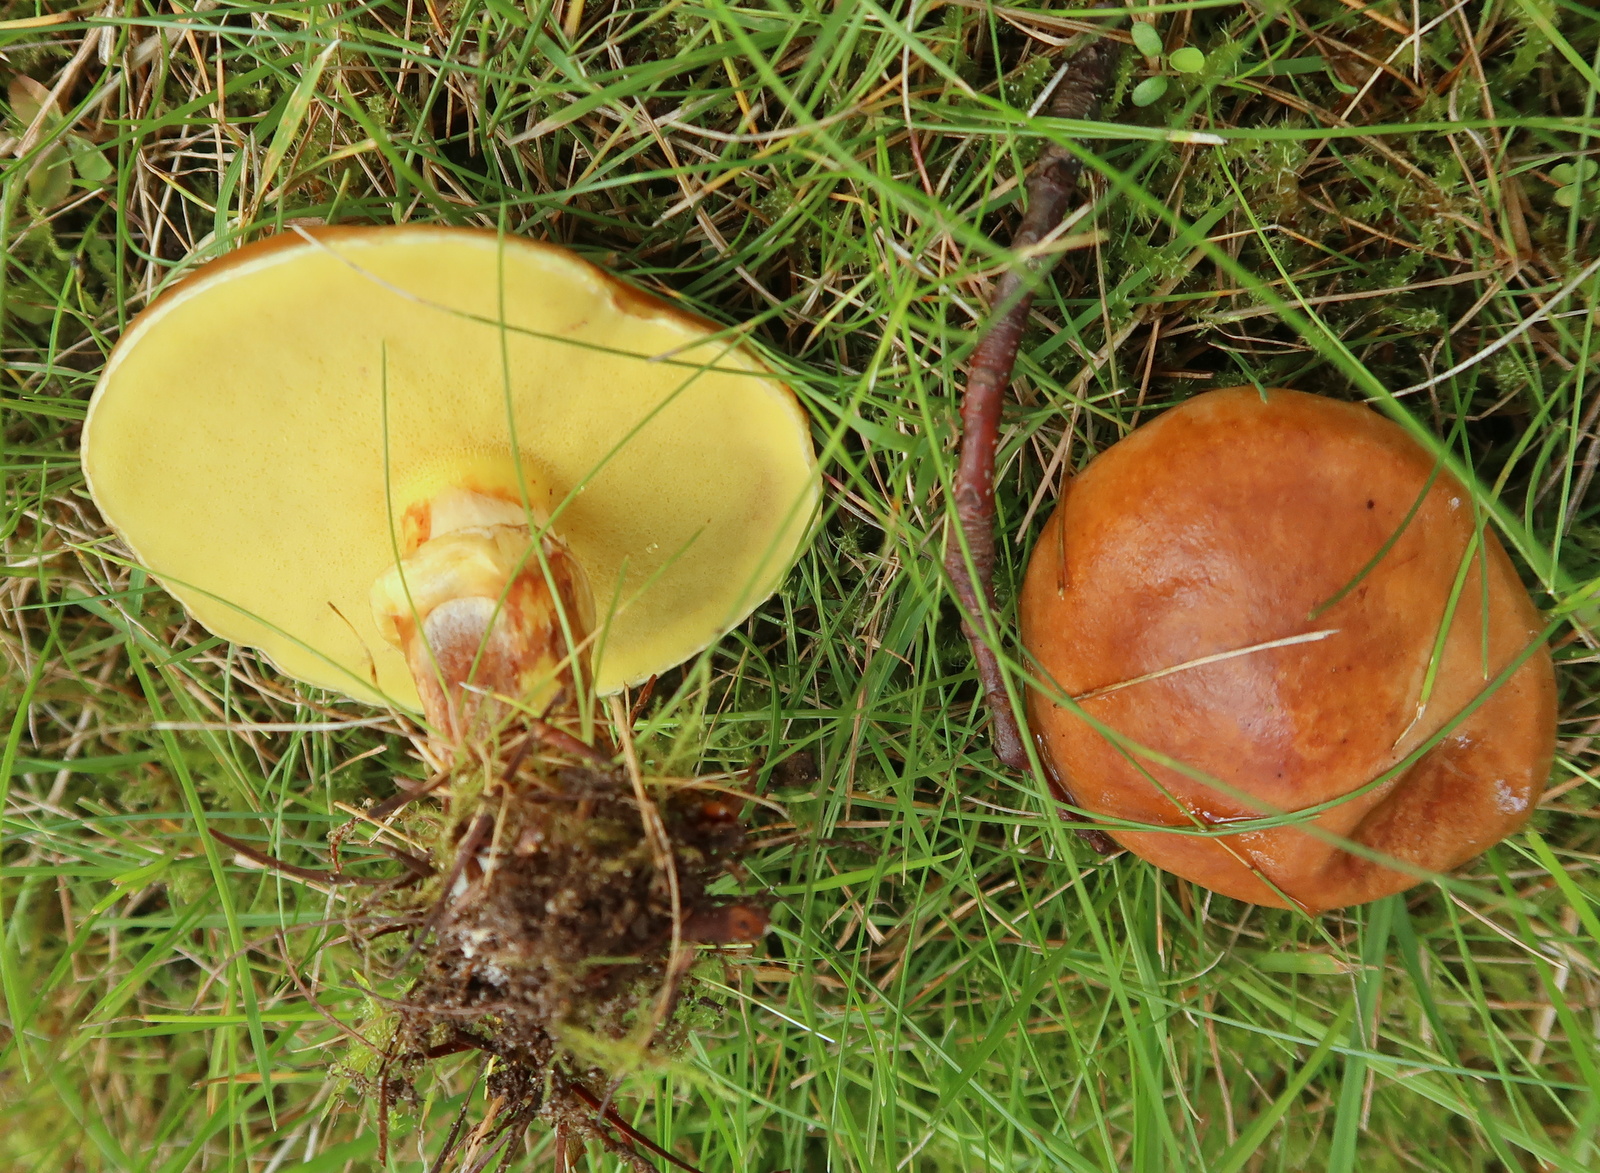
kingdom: Fungi
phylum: Basidiomycota
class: Agaricomycetes
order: Boletales
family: Suillaceae
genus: Suillus
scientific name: Suillus grevillei
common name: lærke-slimrørhat
